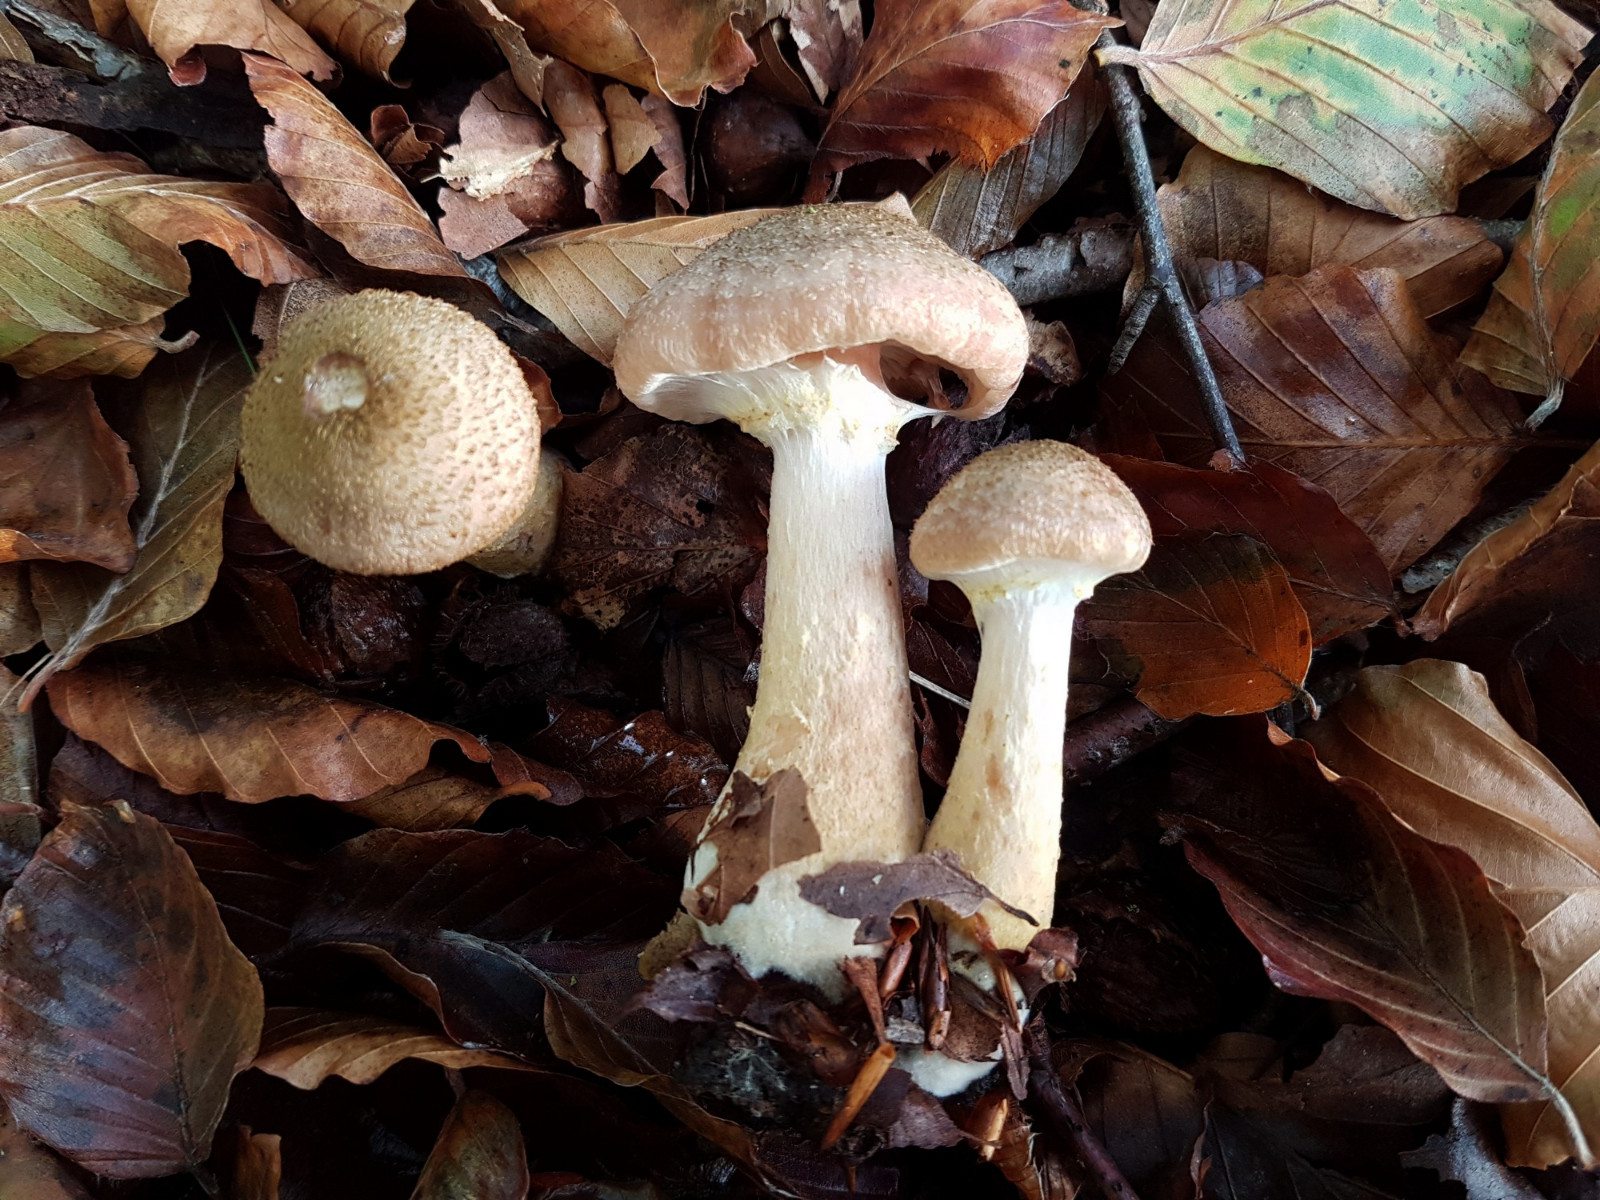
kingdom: Fungi
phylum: Basidiomycota
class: Agaricomycetes
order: Agaricales
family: Physalacriaceae
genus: Armillaria
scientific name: Armillaria lutea
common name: køllestokket honningsvamp
